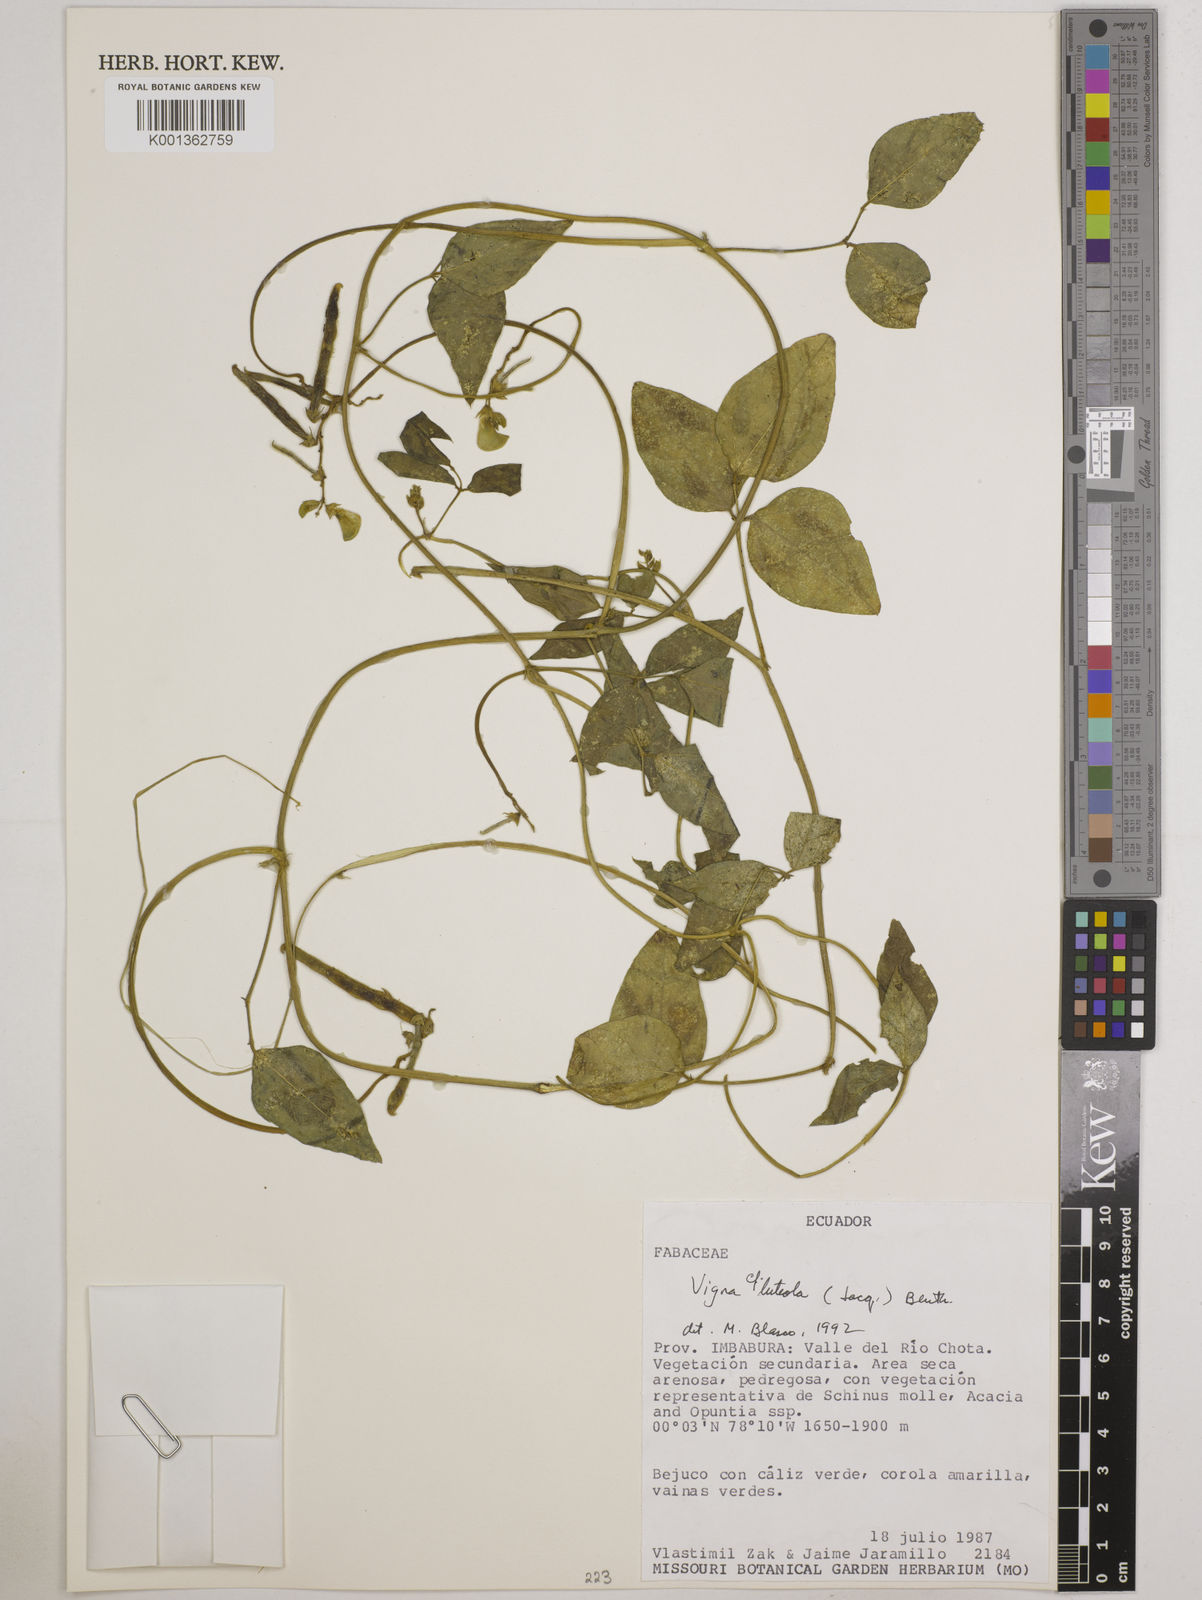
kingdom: Plantae
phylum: Tracheophyta
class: Magnoliopsida
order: Fabales
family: Fabaceae
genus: Vigna
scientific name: Vigna luteola
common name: Hairypod cowpea
